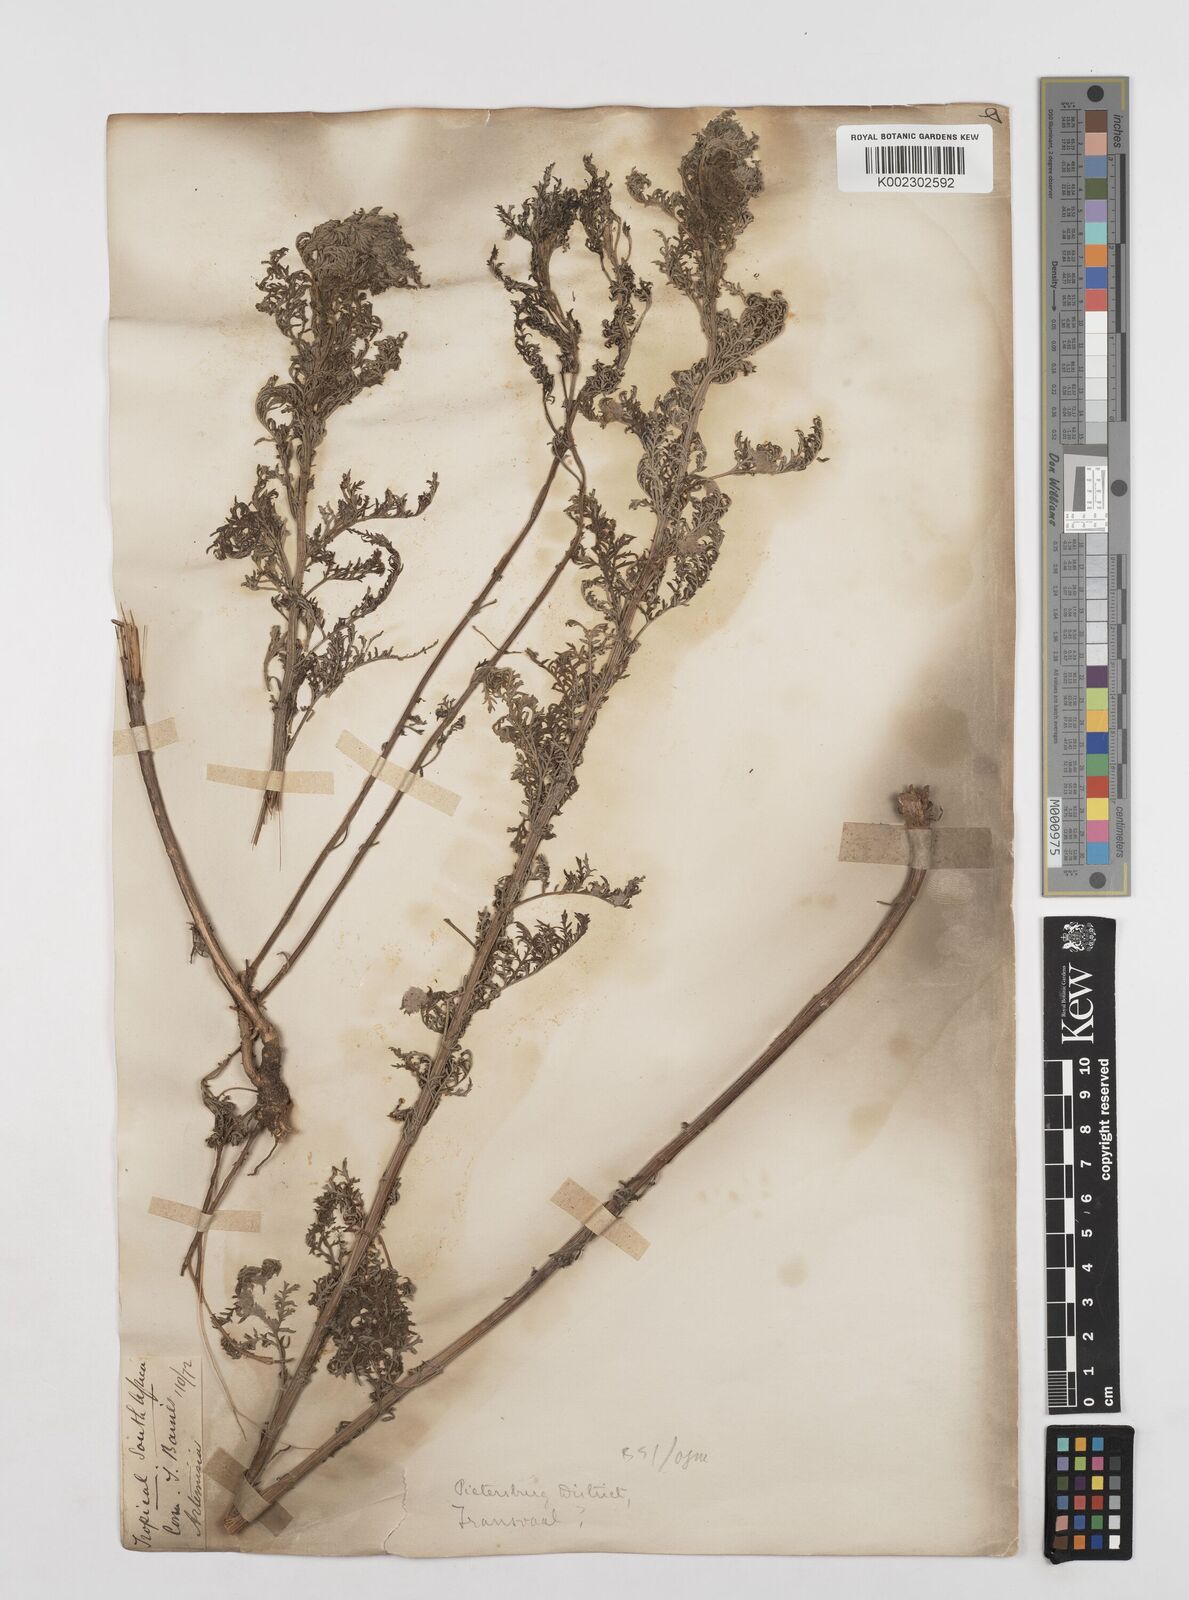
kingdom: Plantae
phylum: Tracheophyta
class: Magnoliopsida
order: Asterales
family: Asteraceae
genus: Artemisia
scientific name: Artemisia afra
